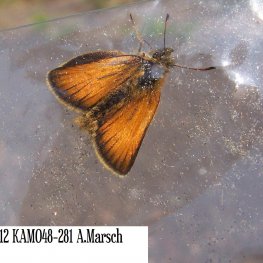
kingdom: Animalia
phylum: Arthropoda
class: Insecta
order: Lepidoptera
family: Hesperiidae
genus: Thymelicus
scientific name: Thymelicus lineola
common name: European Skipper
